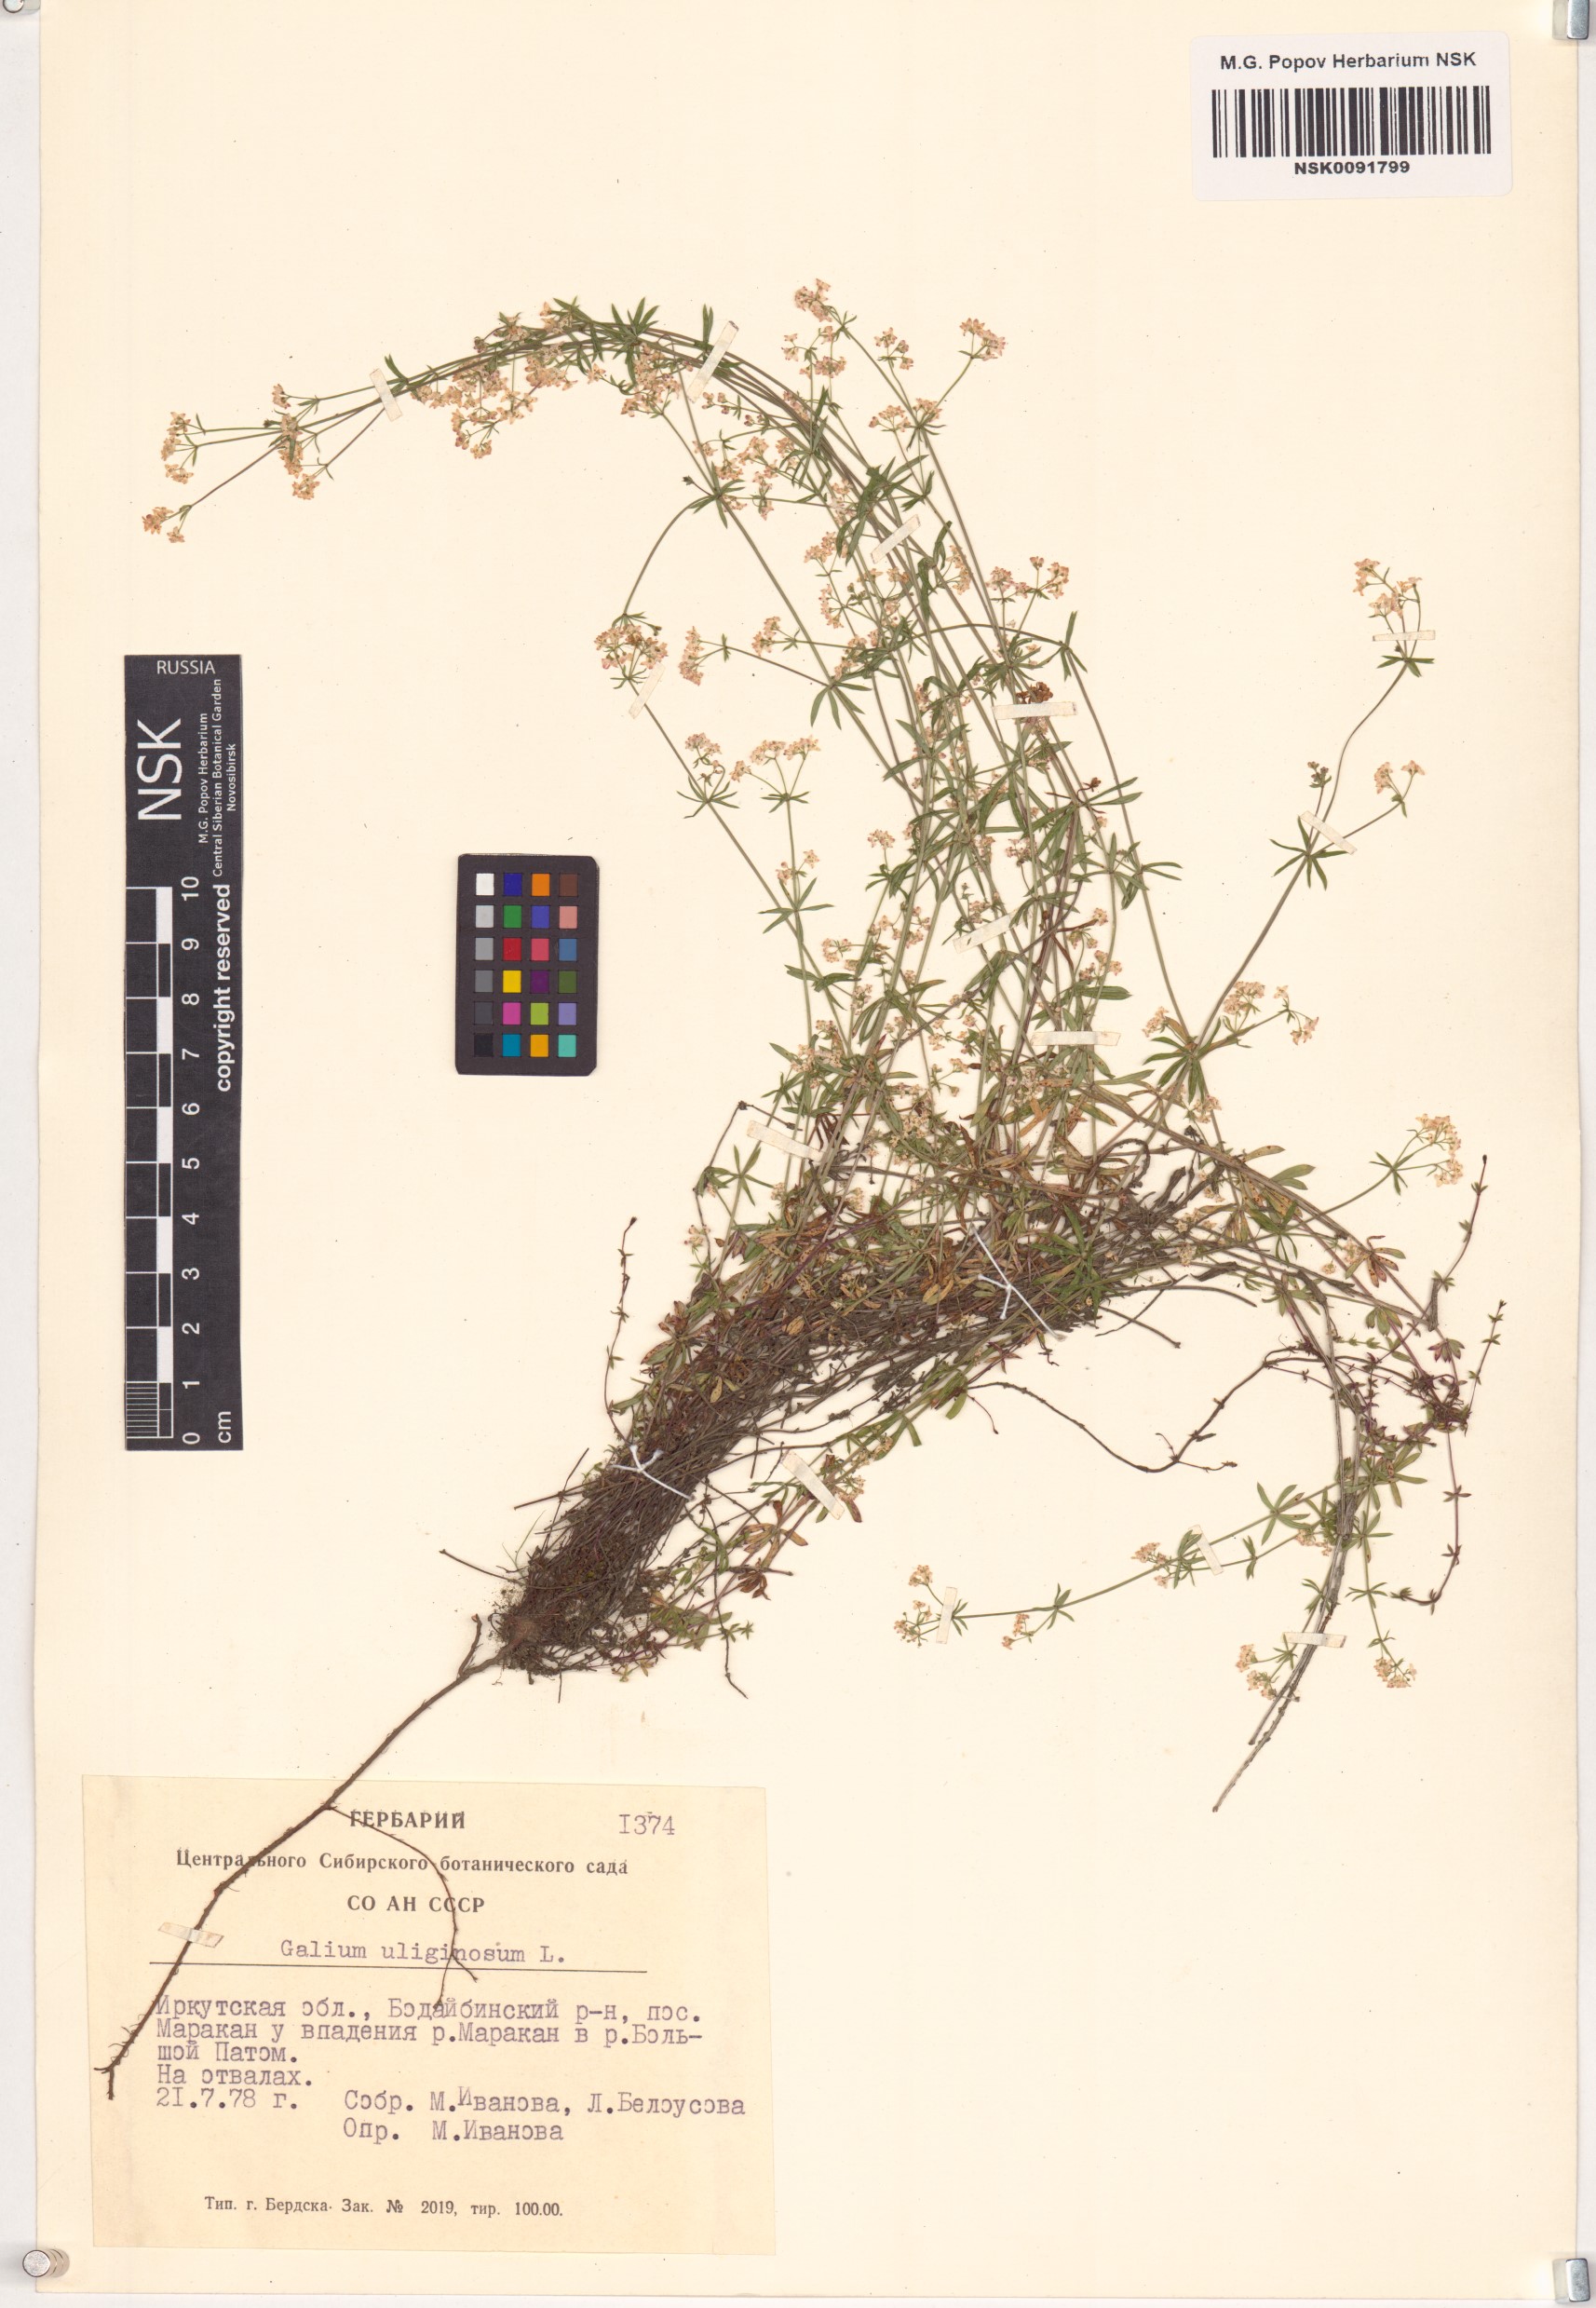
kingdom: Plantae
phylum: Tracheophyta
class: Magnoliopsida
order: Gentianales
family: Rubiaceae
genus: Galium
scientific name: Galium uliginosum
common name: Fen bedstraw
